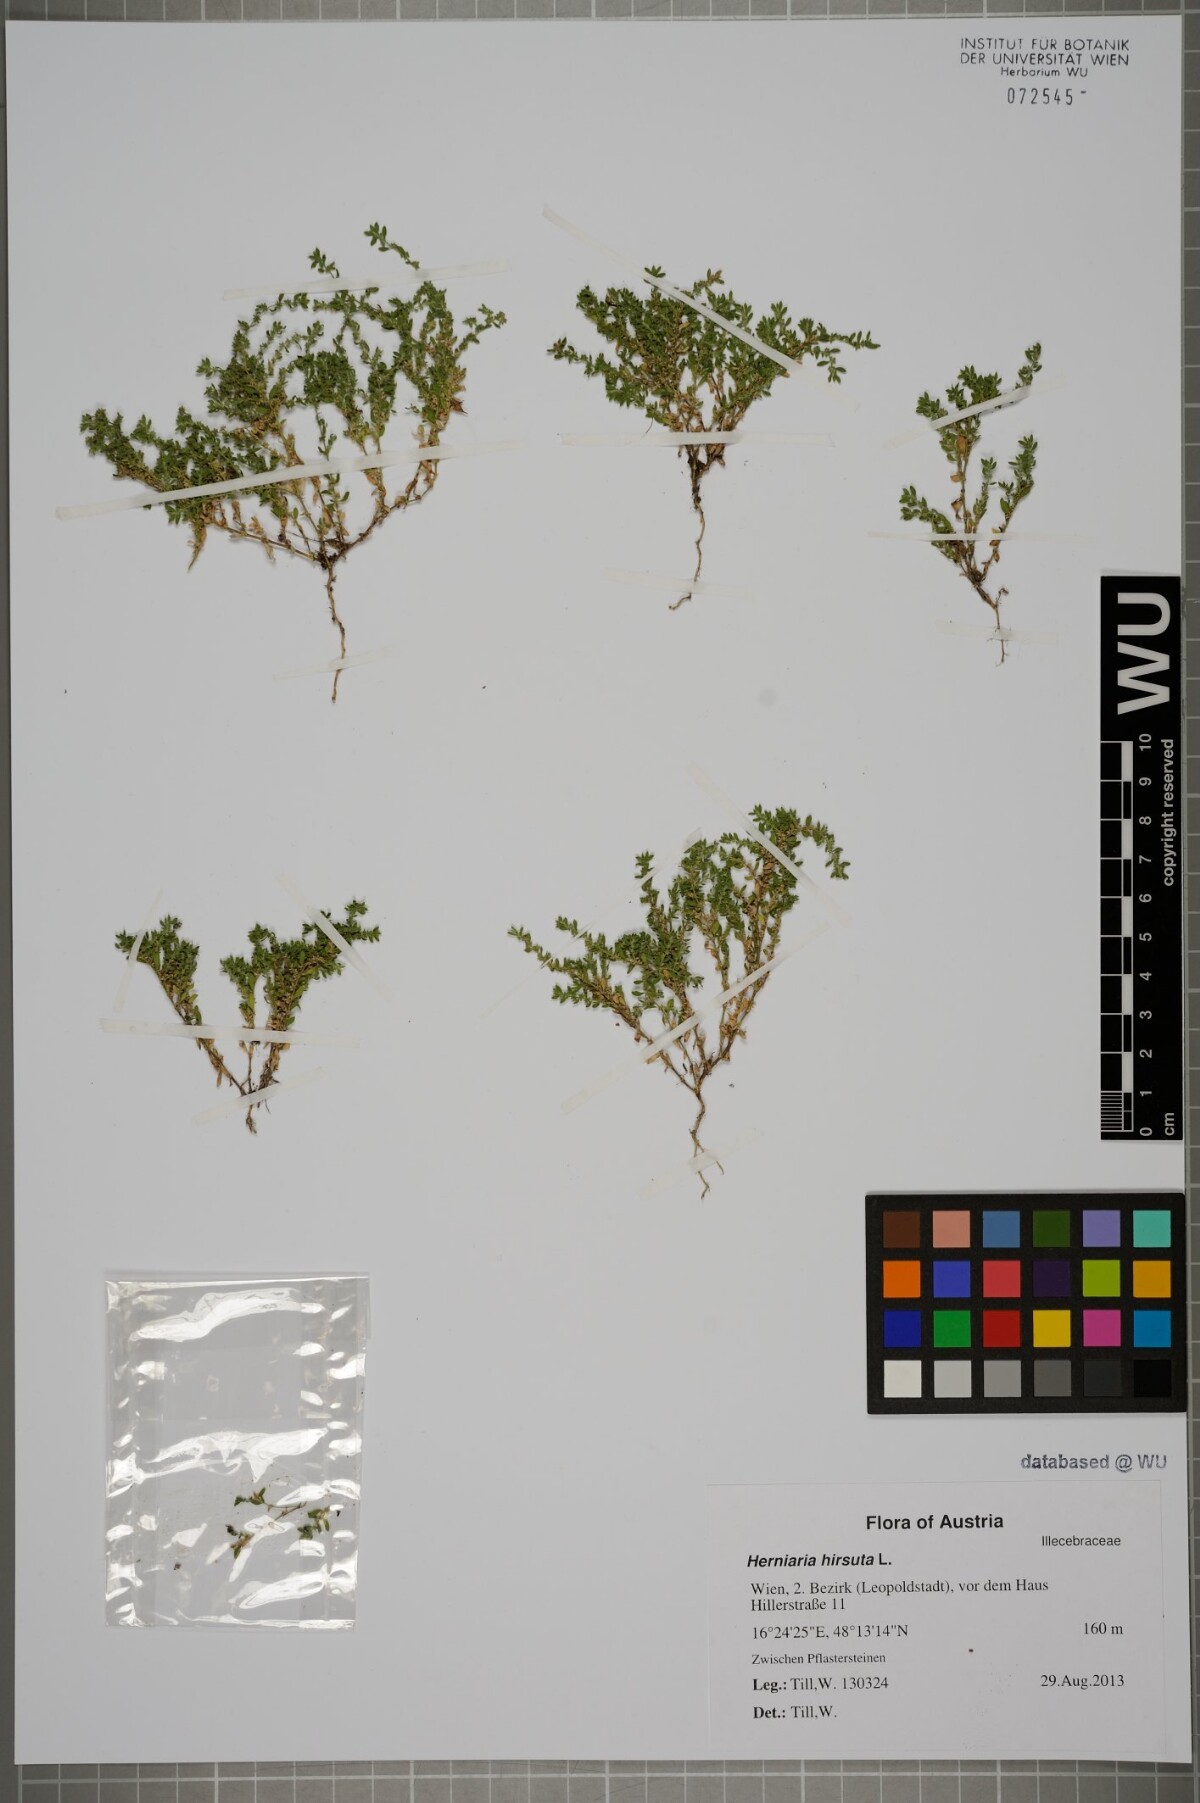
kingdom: Plantae
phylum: Tracheophyta
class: Magnoliopsida
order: Caryophyllales
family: Caryophyllaceae
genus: Herniaria
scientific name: Herniaria hirsuta
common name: Hairy rupturewort
